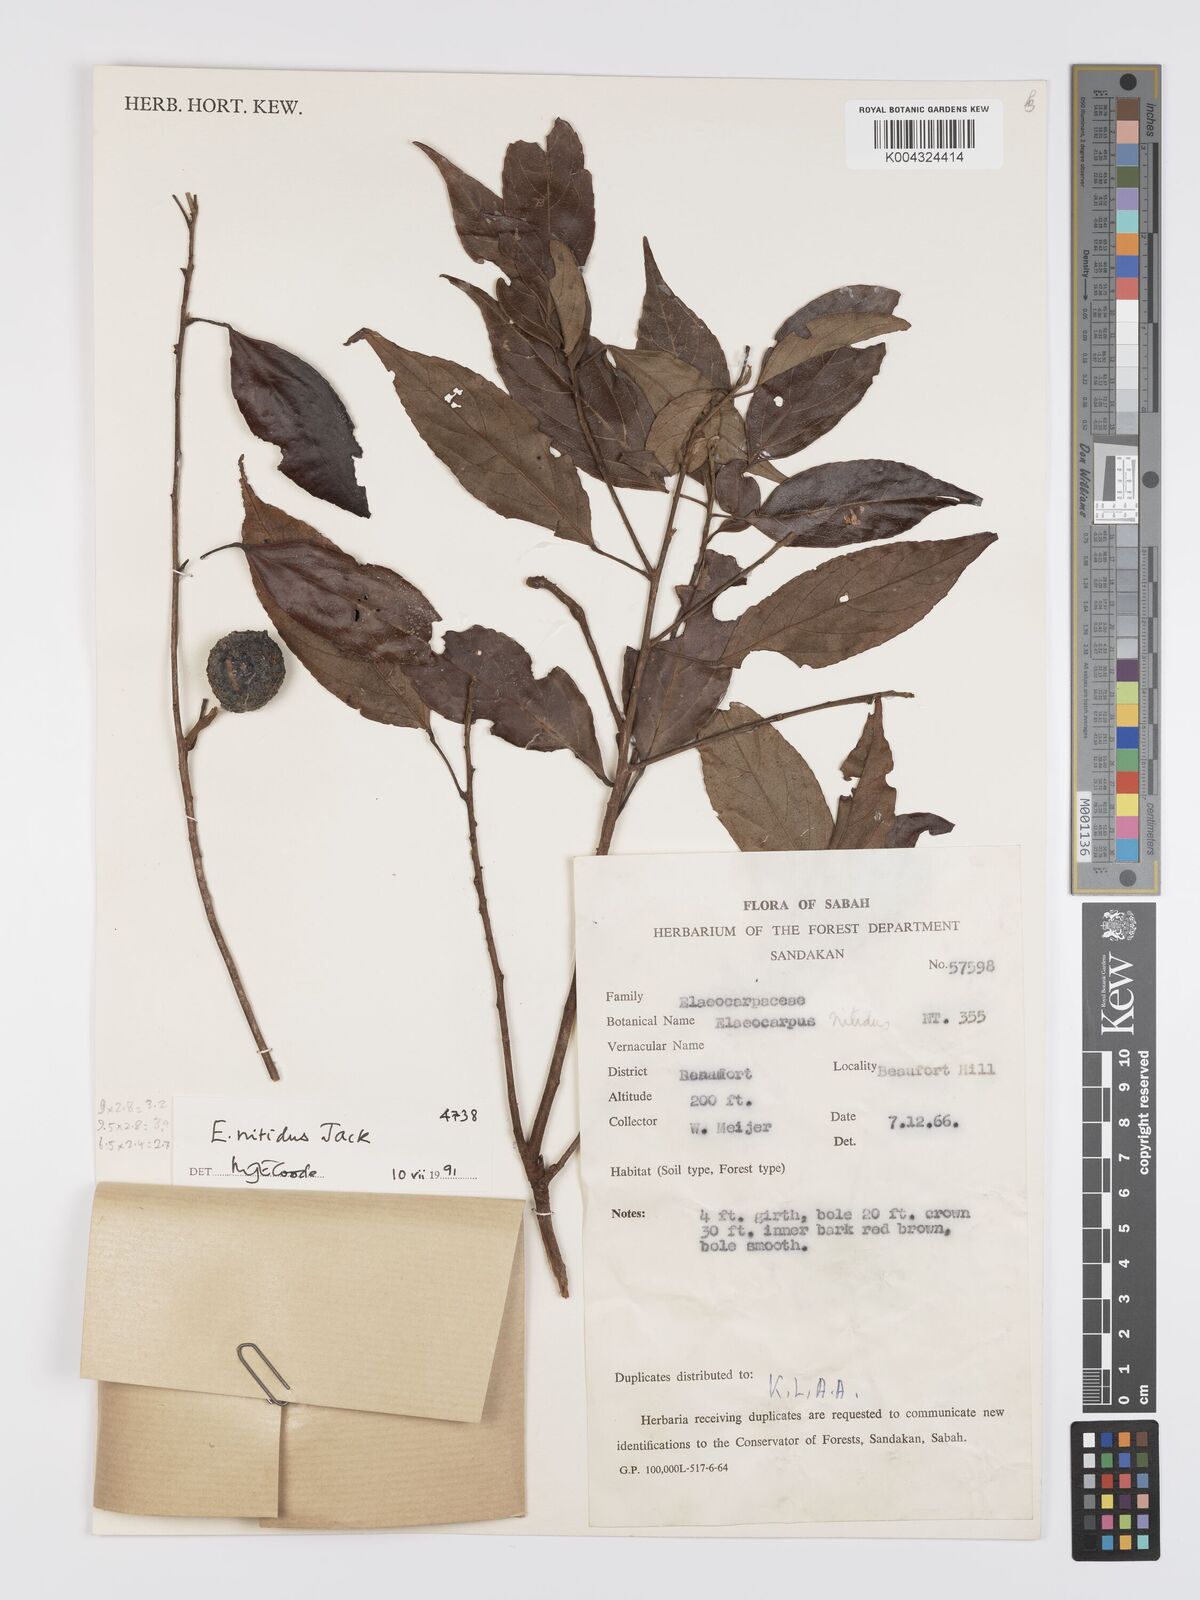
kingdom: Plantae
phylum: Tracheophyta
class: Magnoliopsida
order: Oxalidales
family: Elaeocarpaceae
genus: Elaeocarpus
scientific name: Elaeocarpus nitidus
